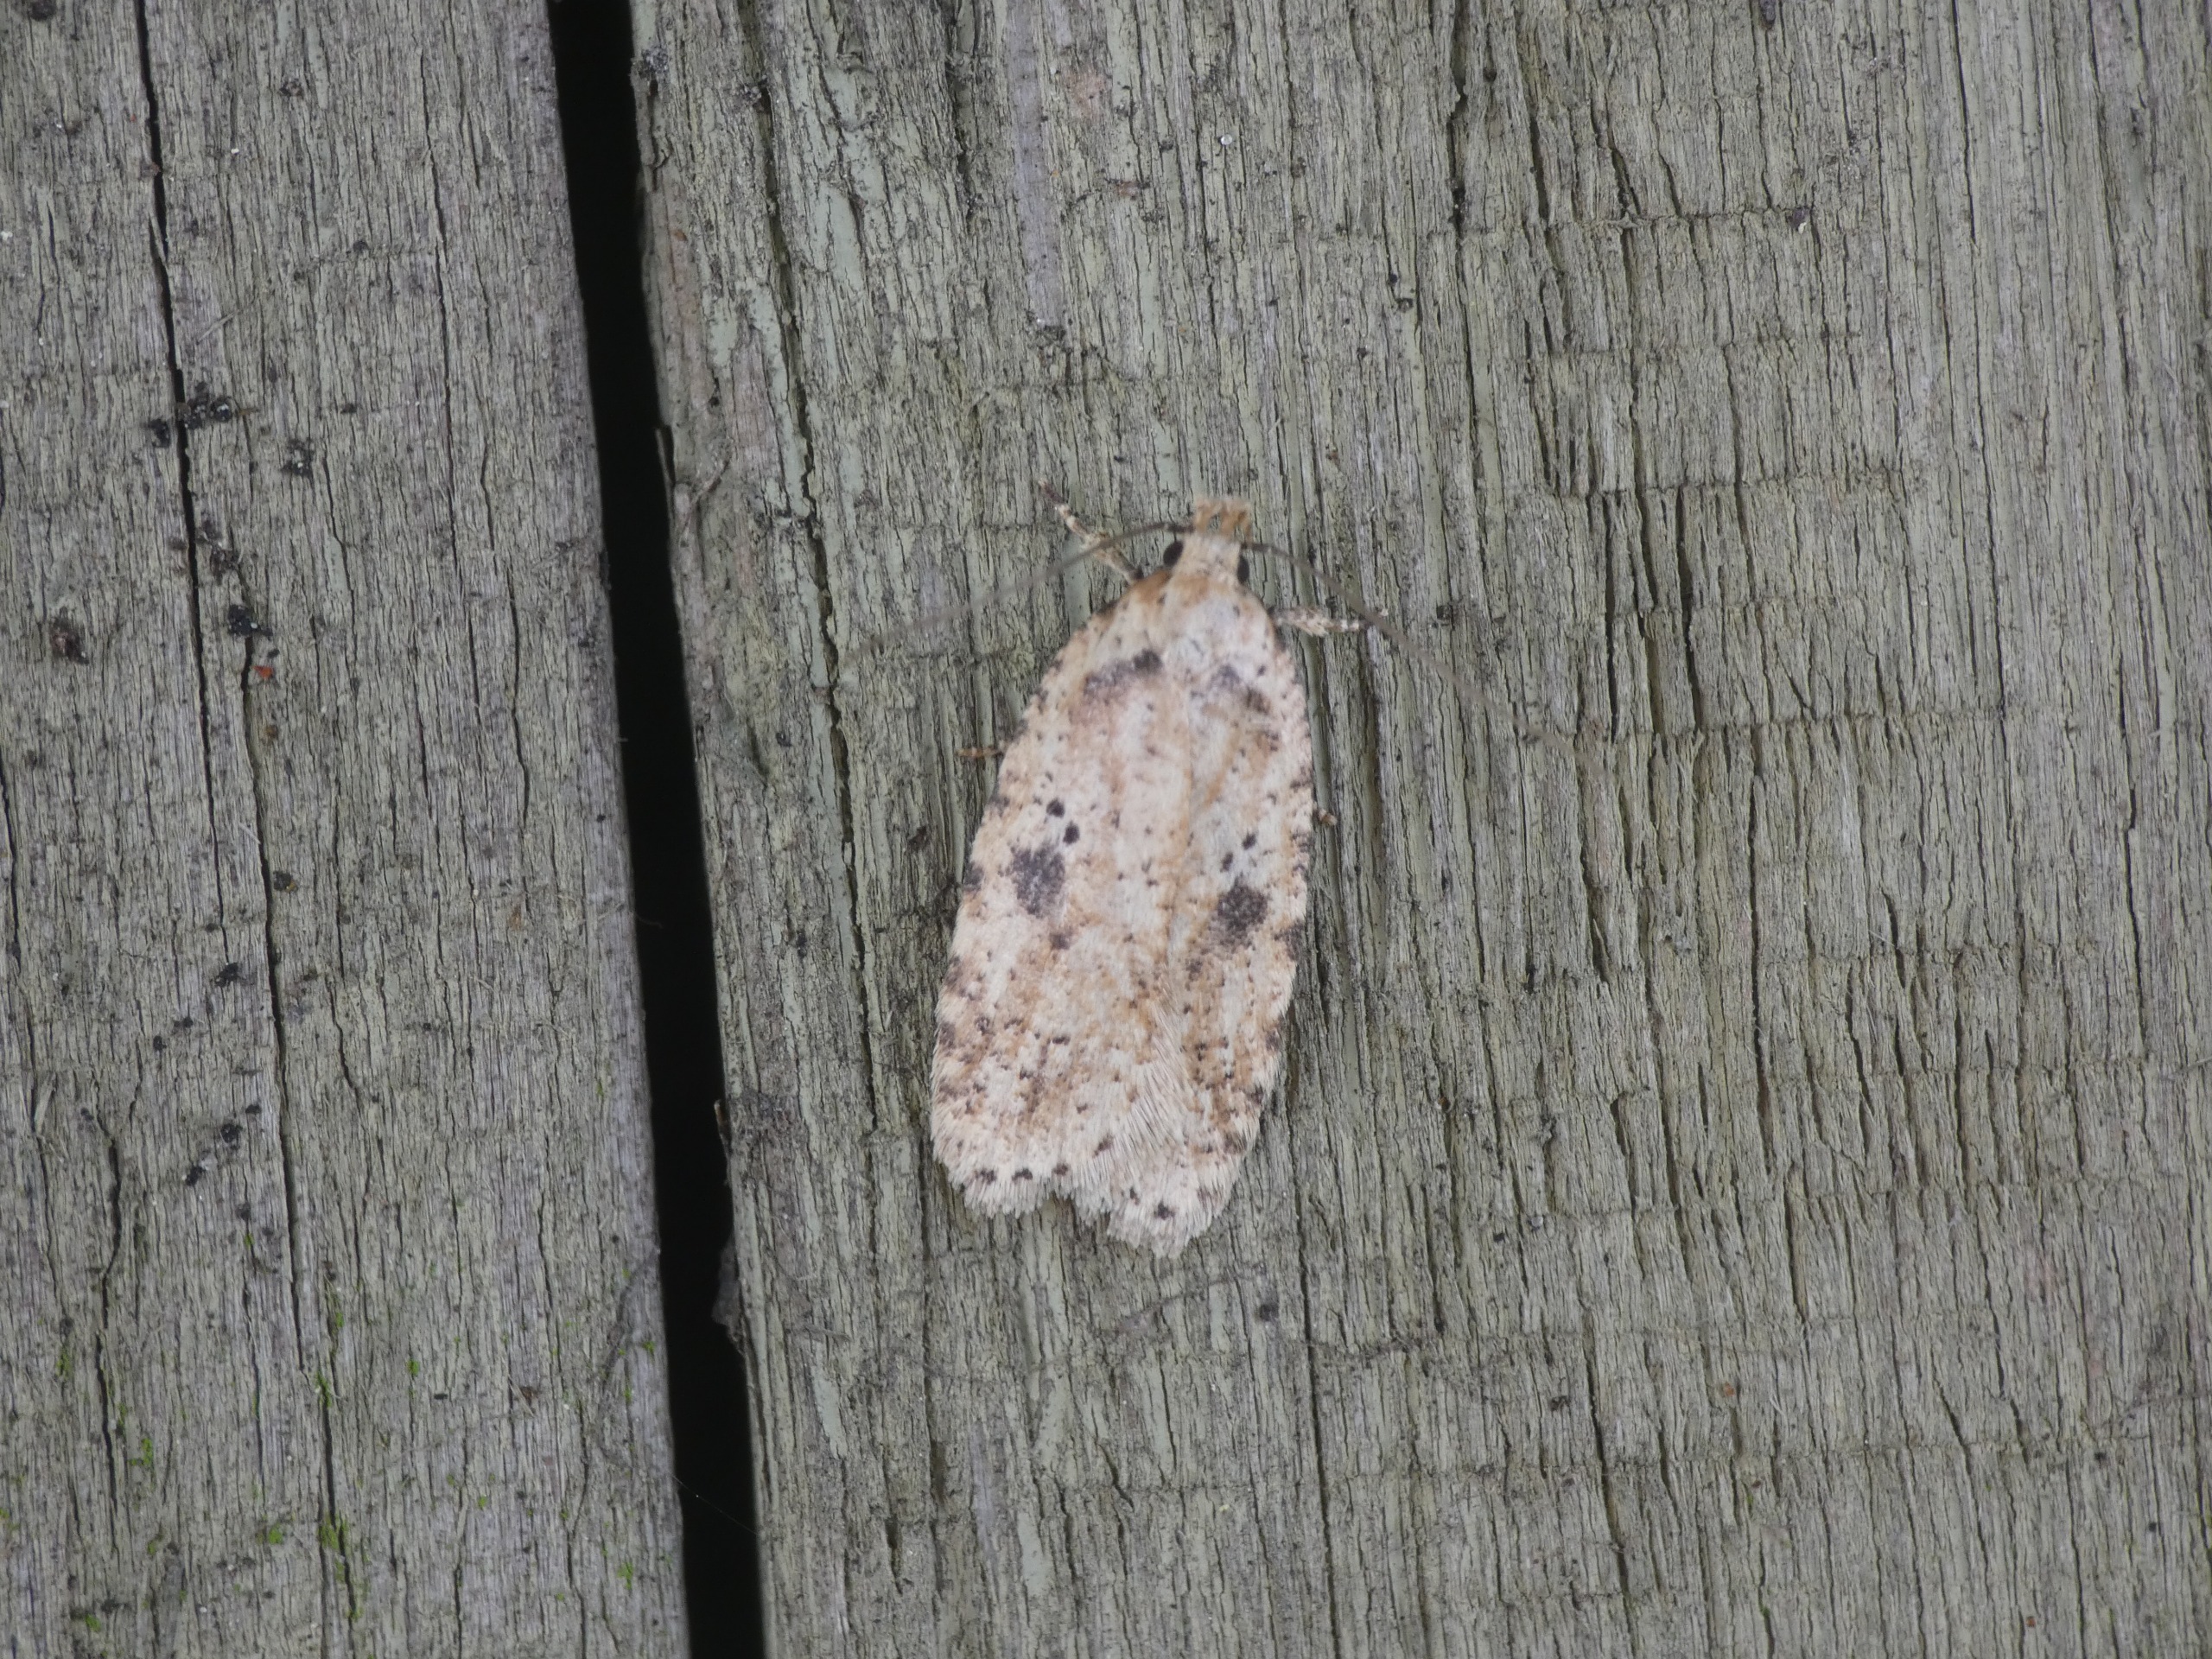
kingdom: Animalia
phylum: Arthropoda
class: Insecta
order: Lepidoptera
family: Depressariidae
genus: Agonopterix
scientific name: Agonopterix arenella
